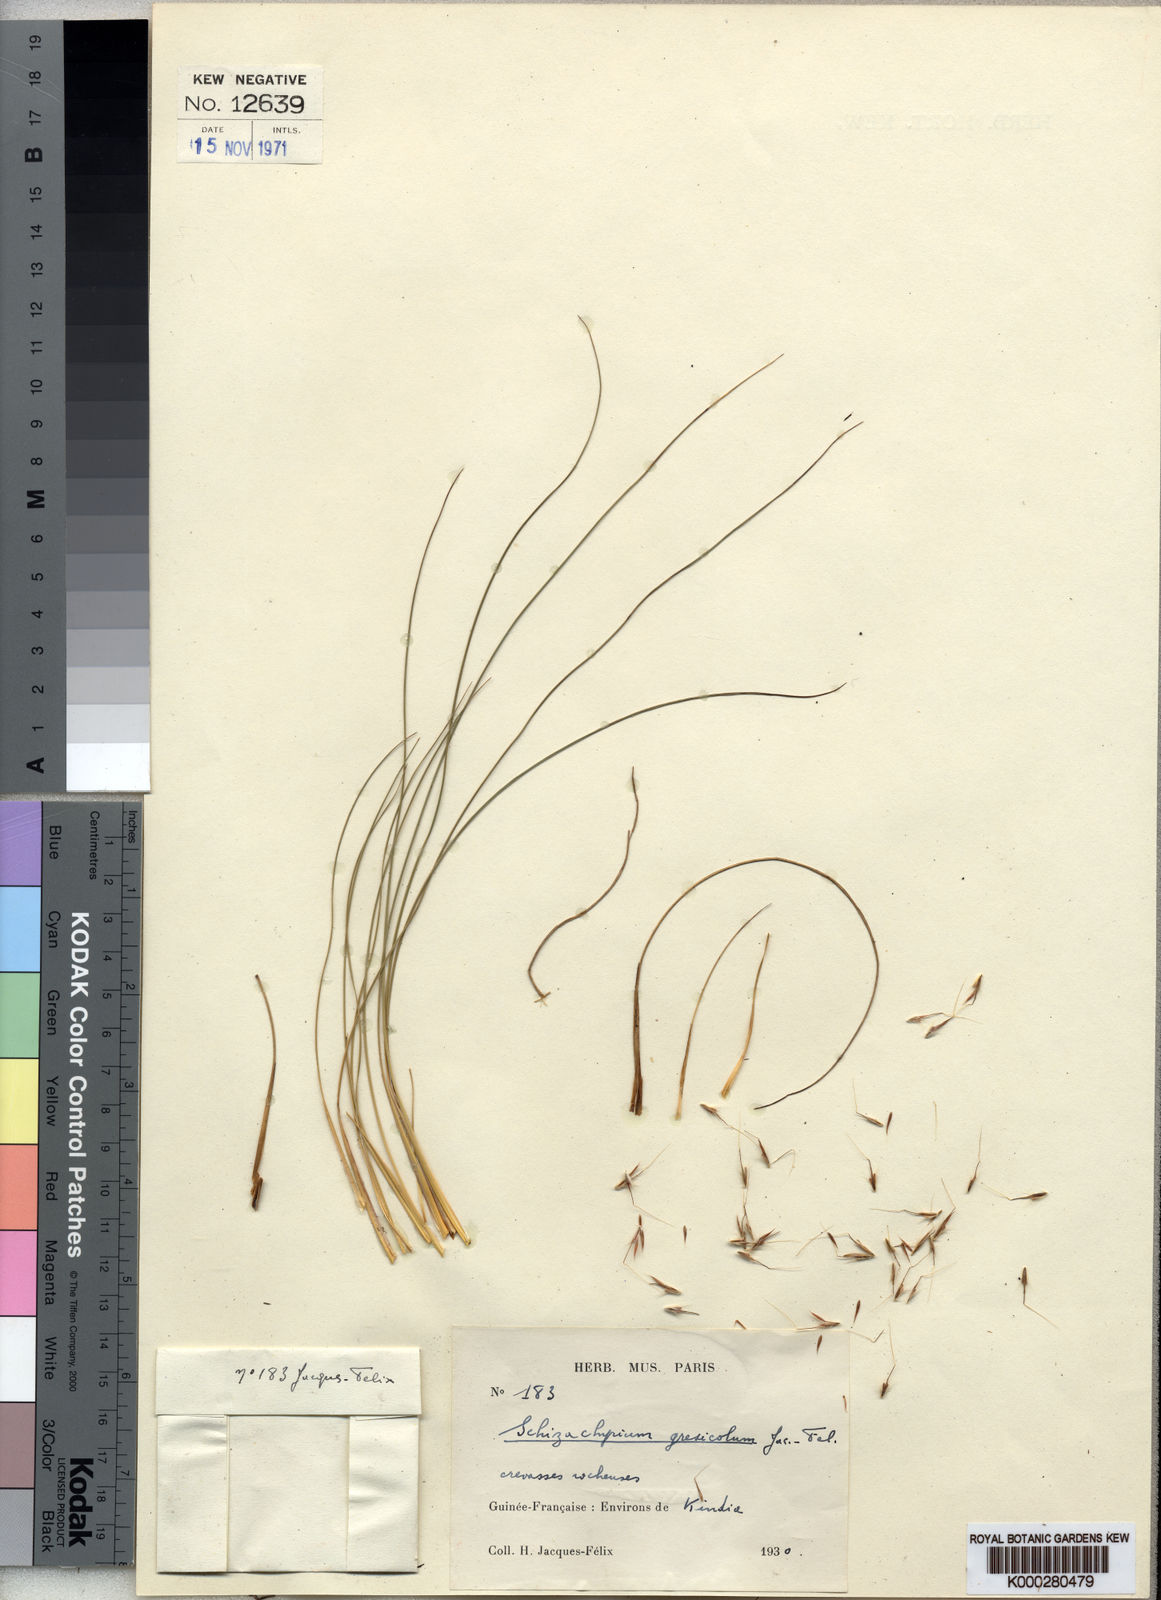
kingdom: Plantae
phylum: Tracheophyta
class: Liliopsida
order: Poales
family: Poaceae
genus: Schizachyrium
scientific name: Schizachyrium
